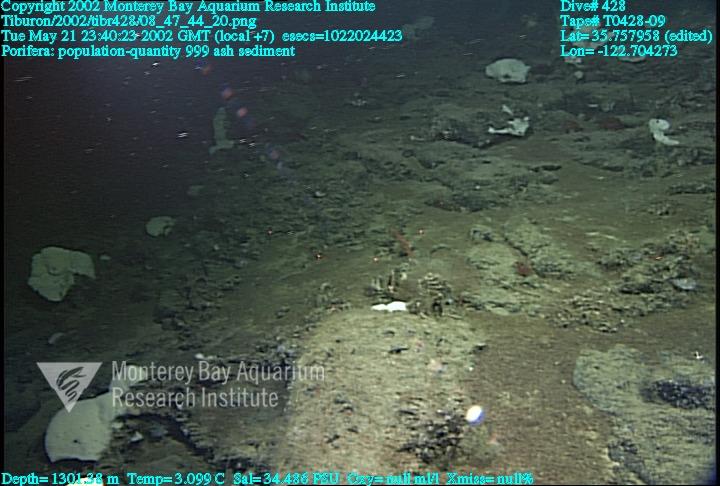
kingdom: Animalia
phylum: Porifera
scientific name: Porifera
